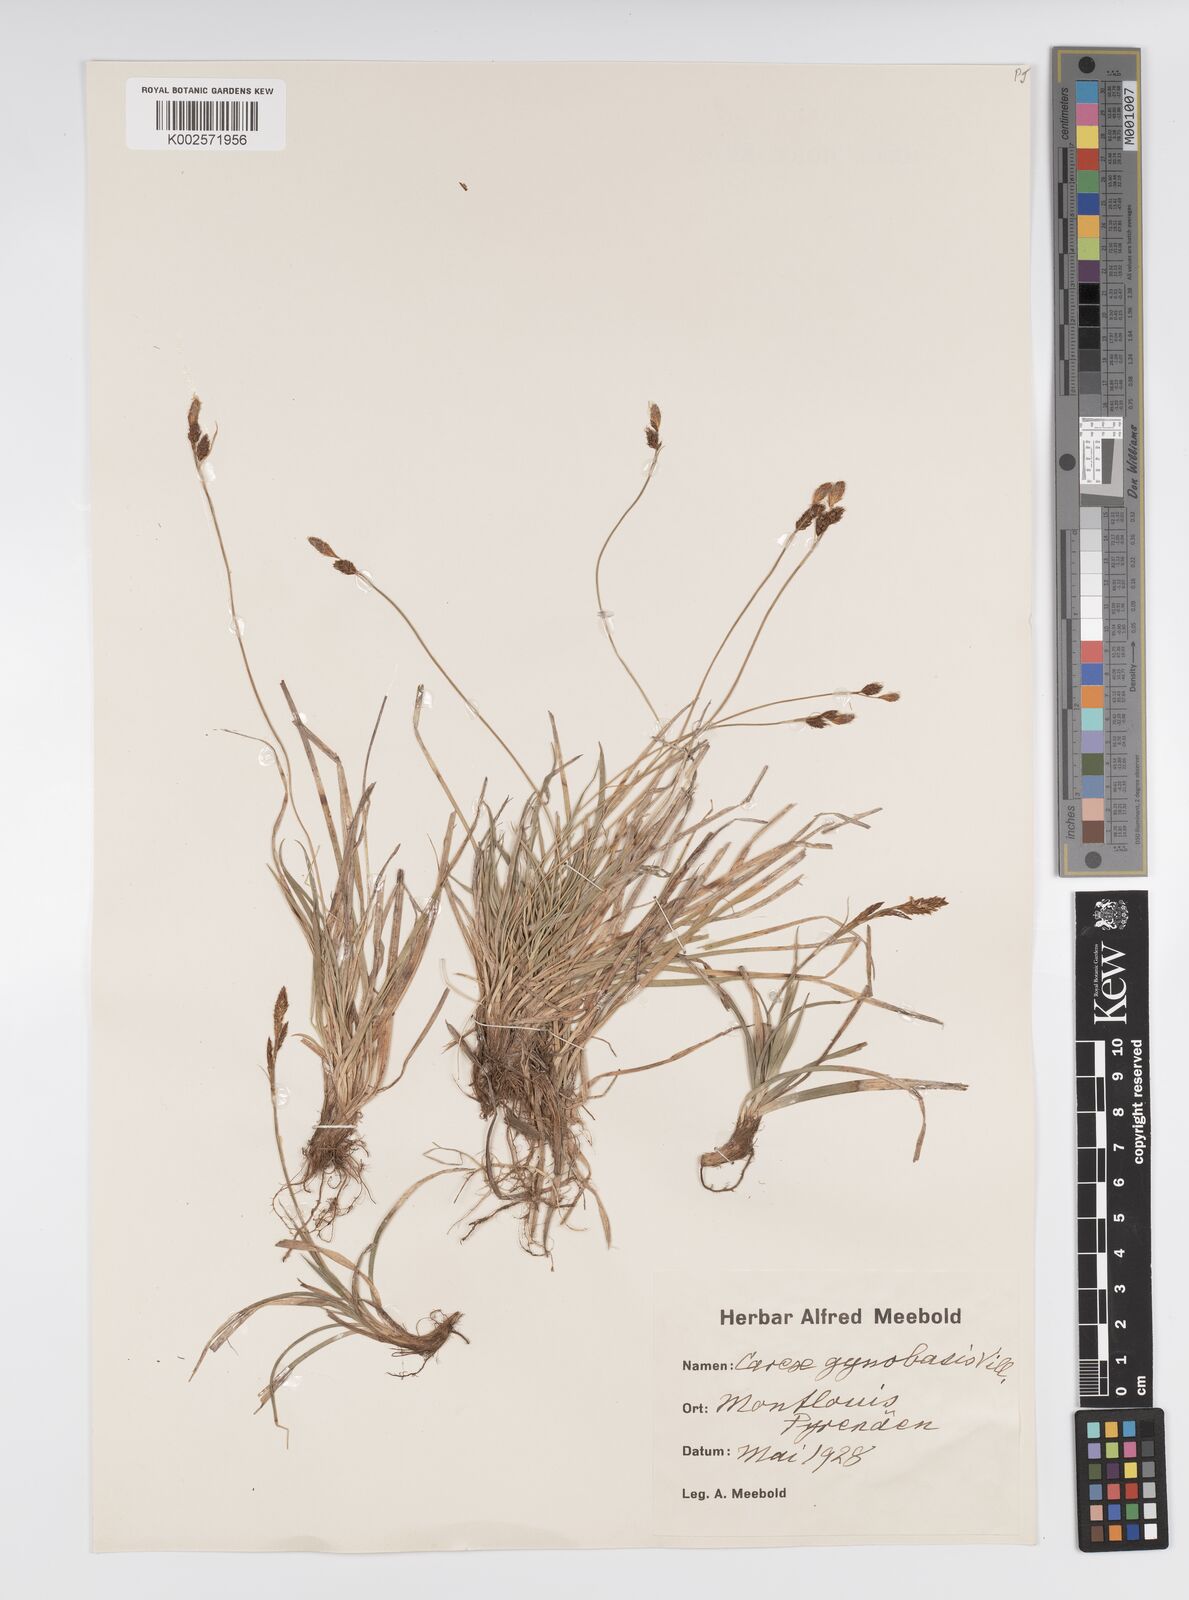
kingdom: Plantae
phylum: Tracheophyta
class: Liliopsida
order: Poales
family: Cyperaceae
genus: Carex
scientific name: Carex halleriana
